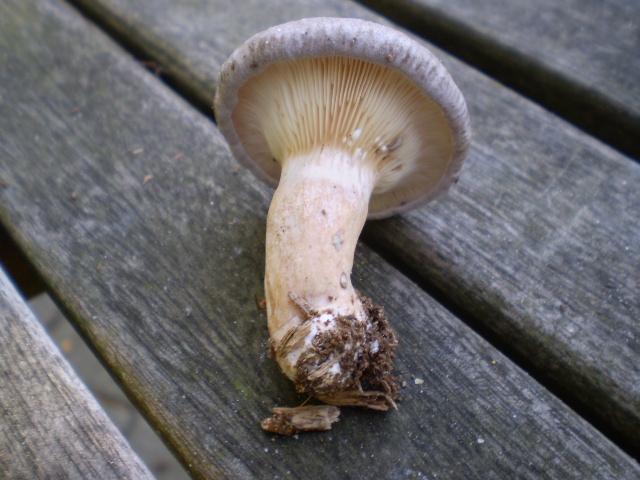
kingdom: Fungi
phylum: Basidiomycota
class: Agaricomycetes
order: Russulales
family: Russulaceae
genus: Lactarius
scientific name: Lactarius vietus
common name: violetgrå mælkehat
